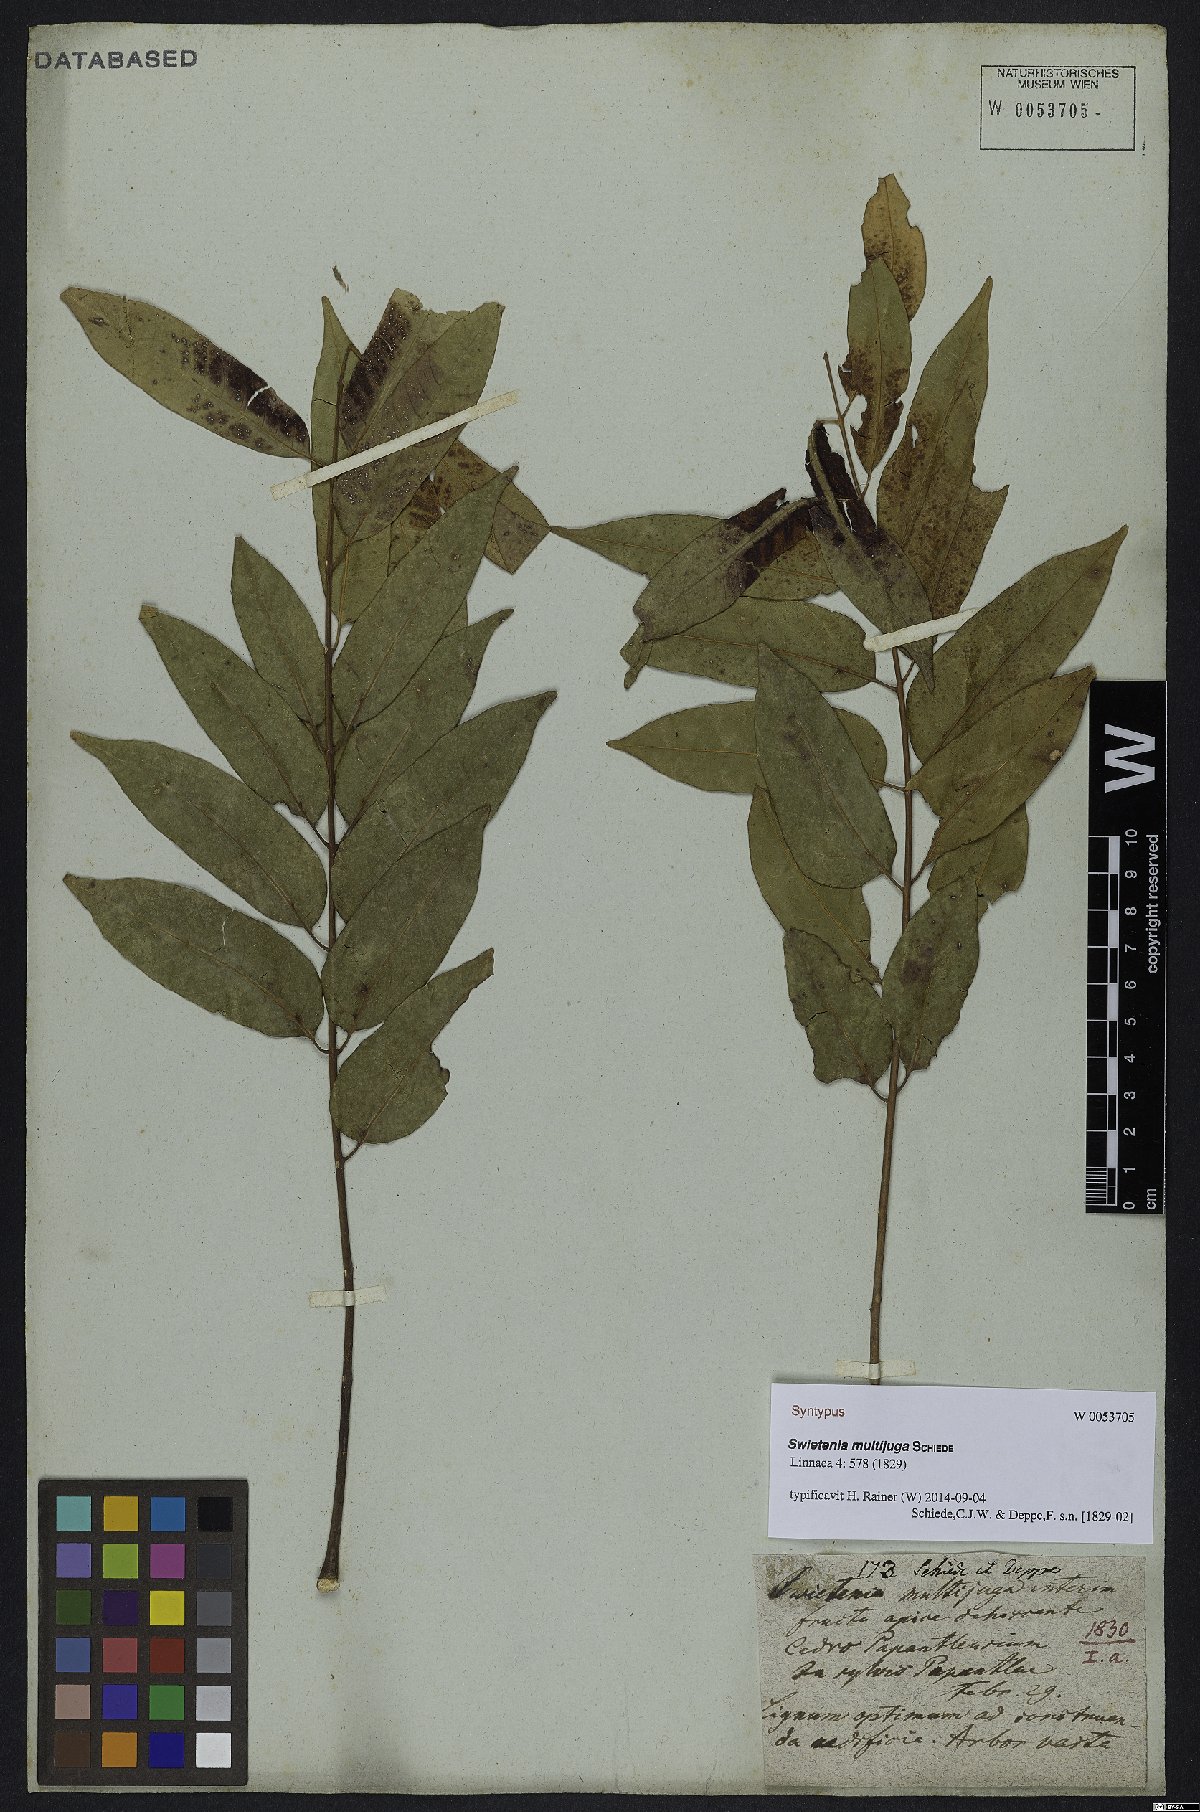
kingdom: Plantae
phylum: Tracheophyta
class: Magnoliopsida
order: Sapindales
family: Meliaceae
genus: Swietenia
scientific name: Swietenia humilis
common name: Pacific coast mahogany
